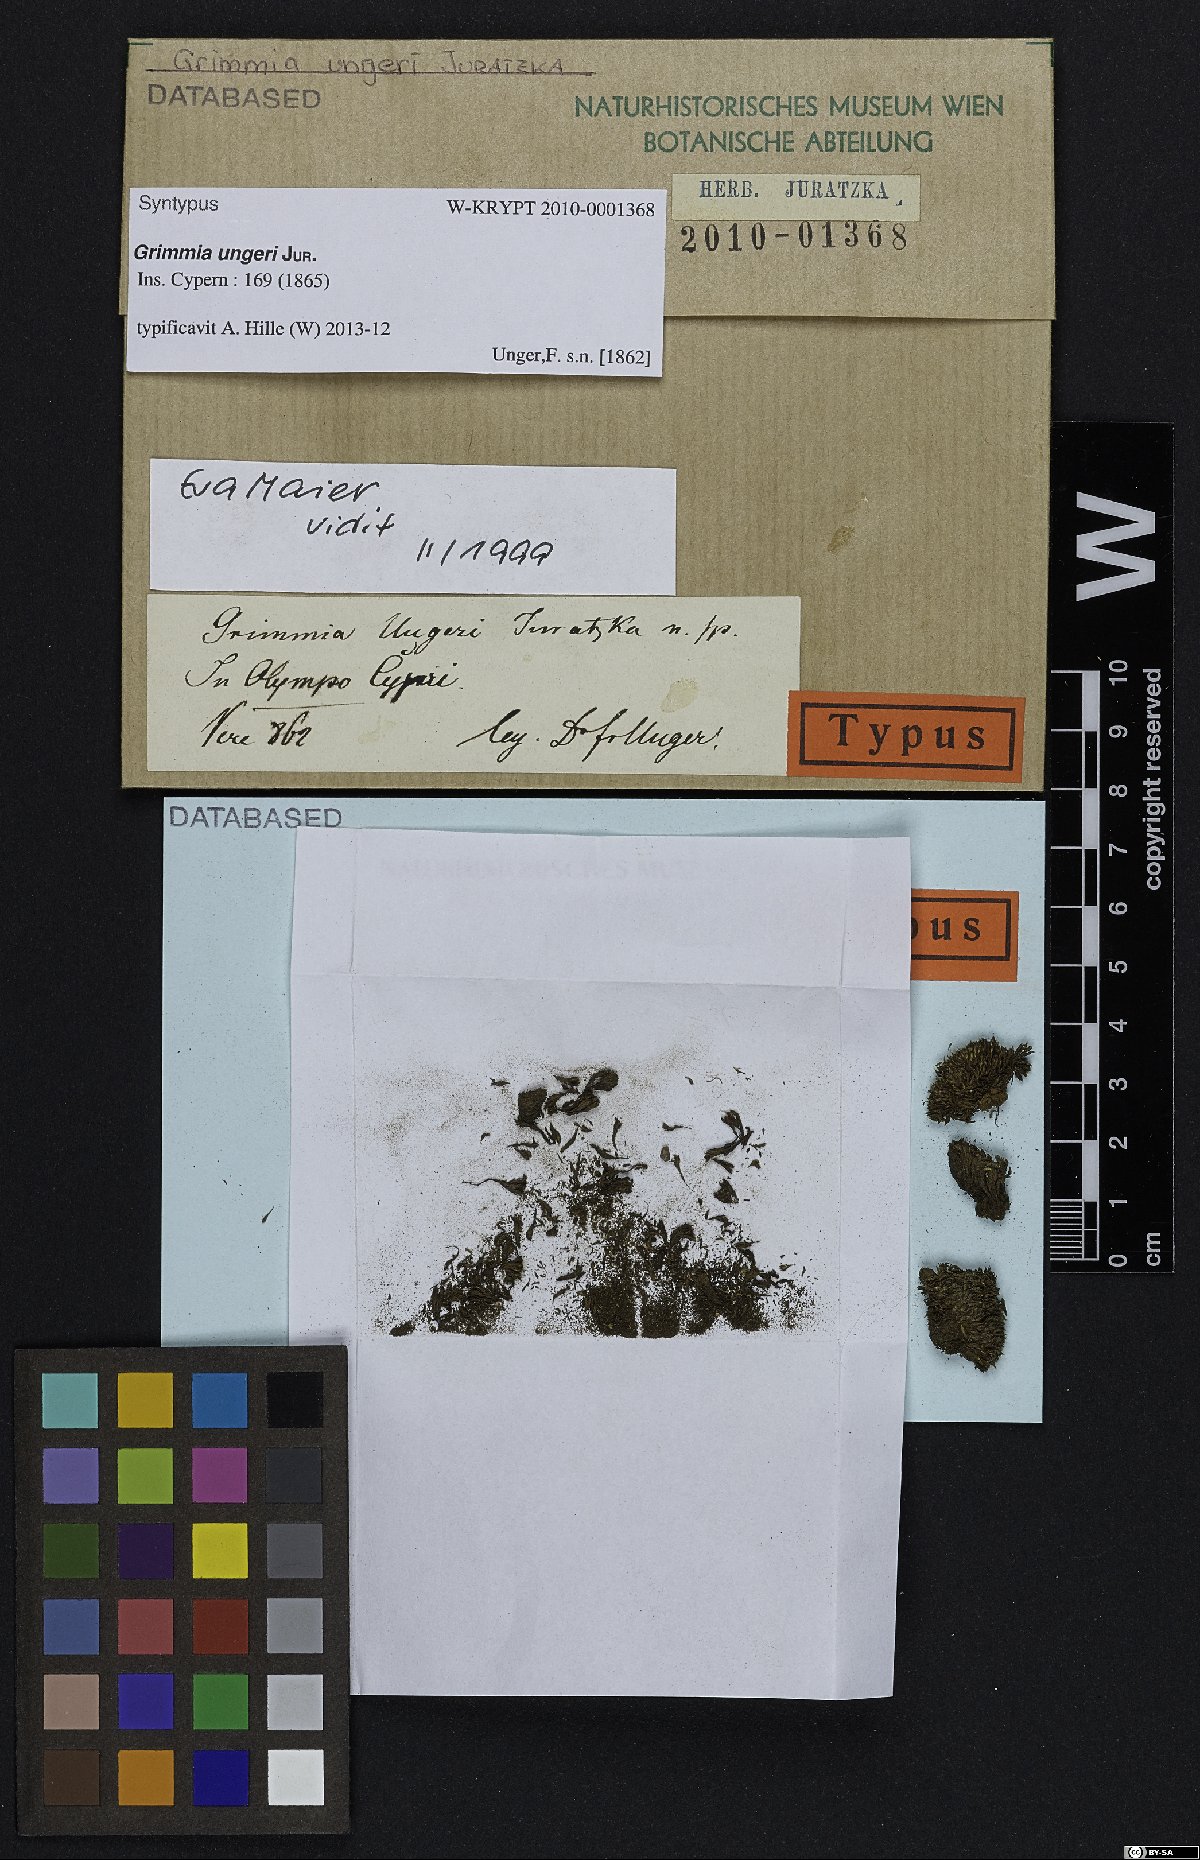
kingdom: Plantae
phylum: Bryophyta
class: Bryopsida
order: Grimmiales
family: Grimmiaceae
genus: Grimmia
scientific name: Grimmia ungeri
